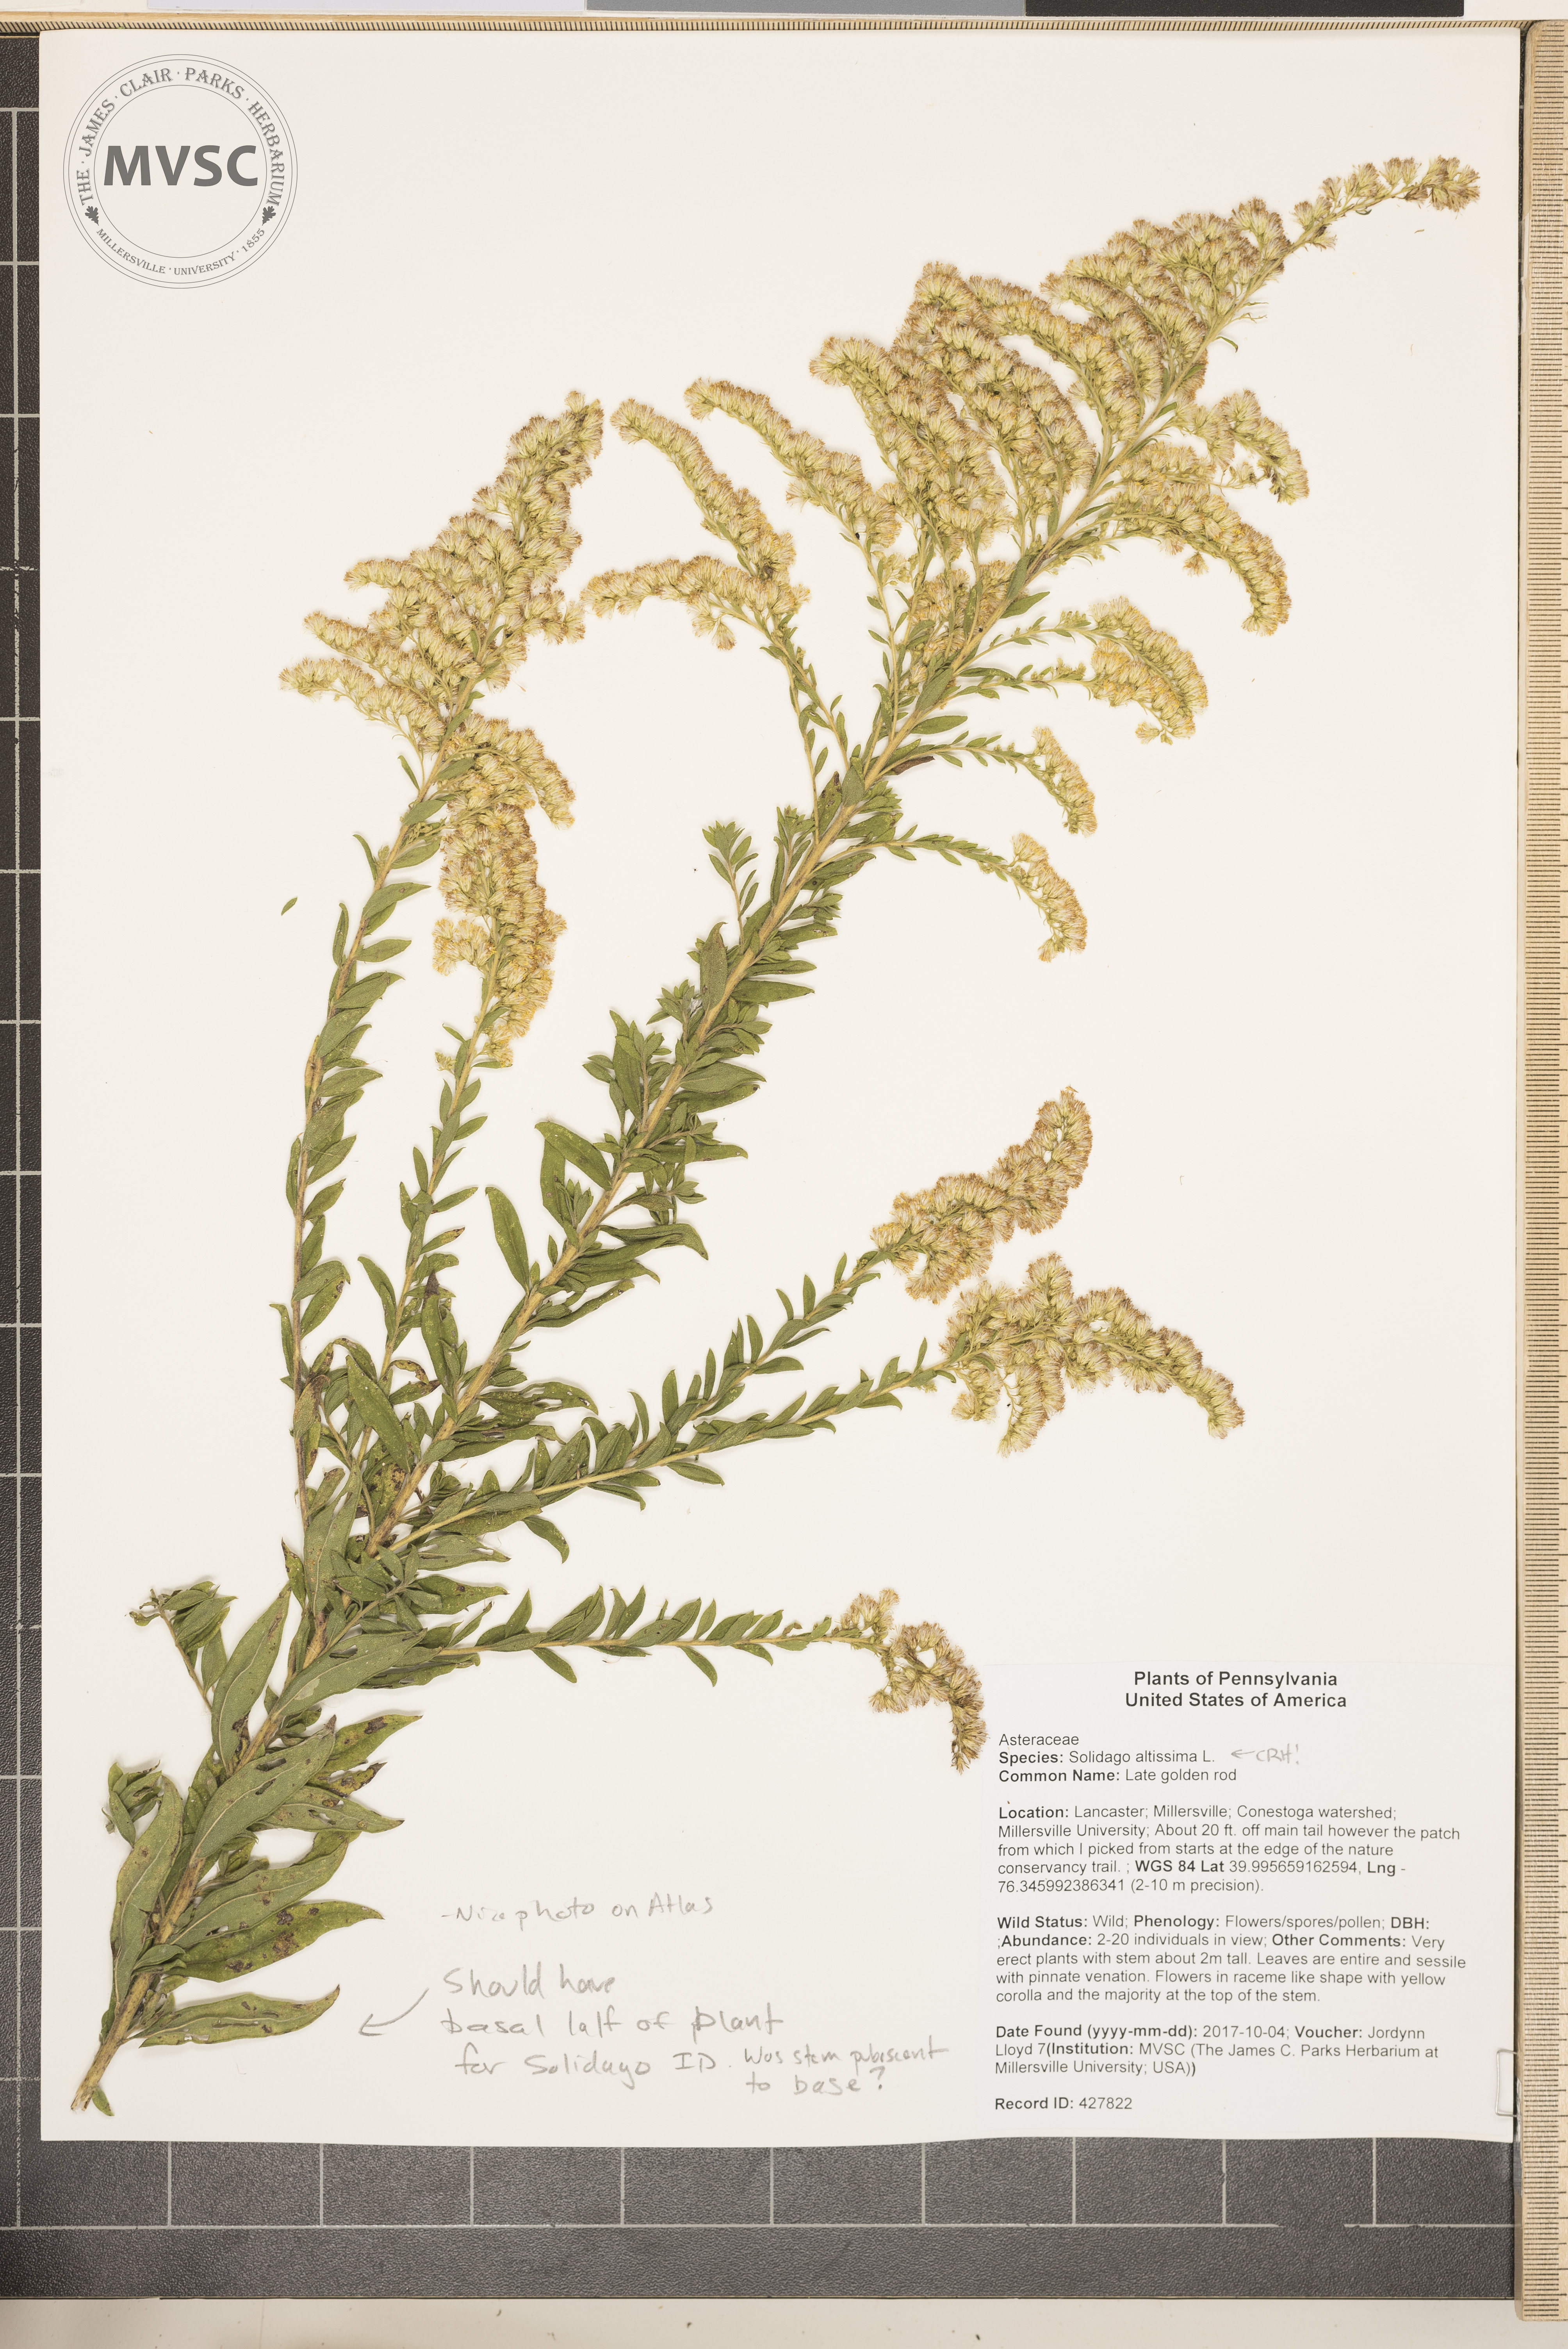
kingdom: Plantae
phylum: Tracheophyta
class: Magnoliopsida
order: Asterales
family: Asteraceae
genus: Solidago
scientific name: Solidago altissima
